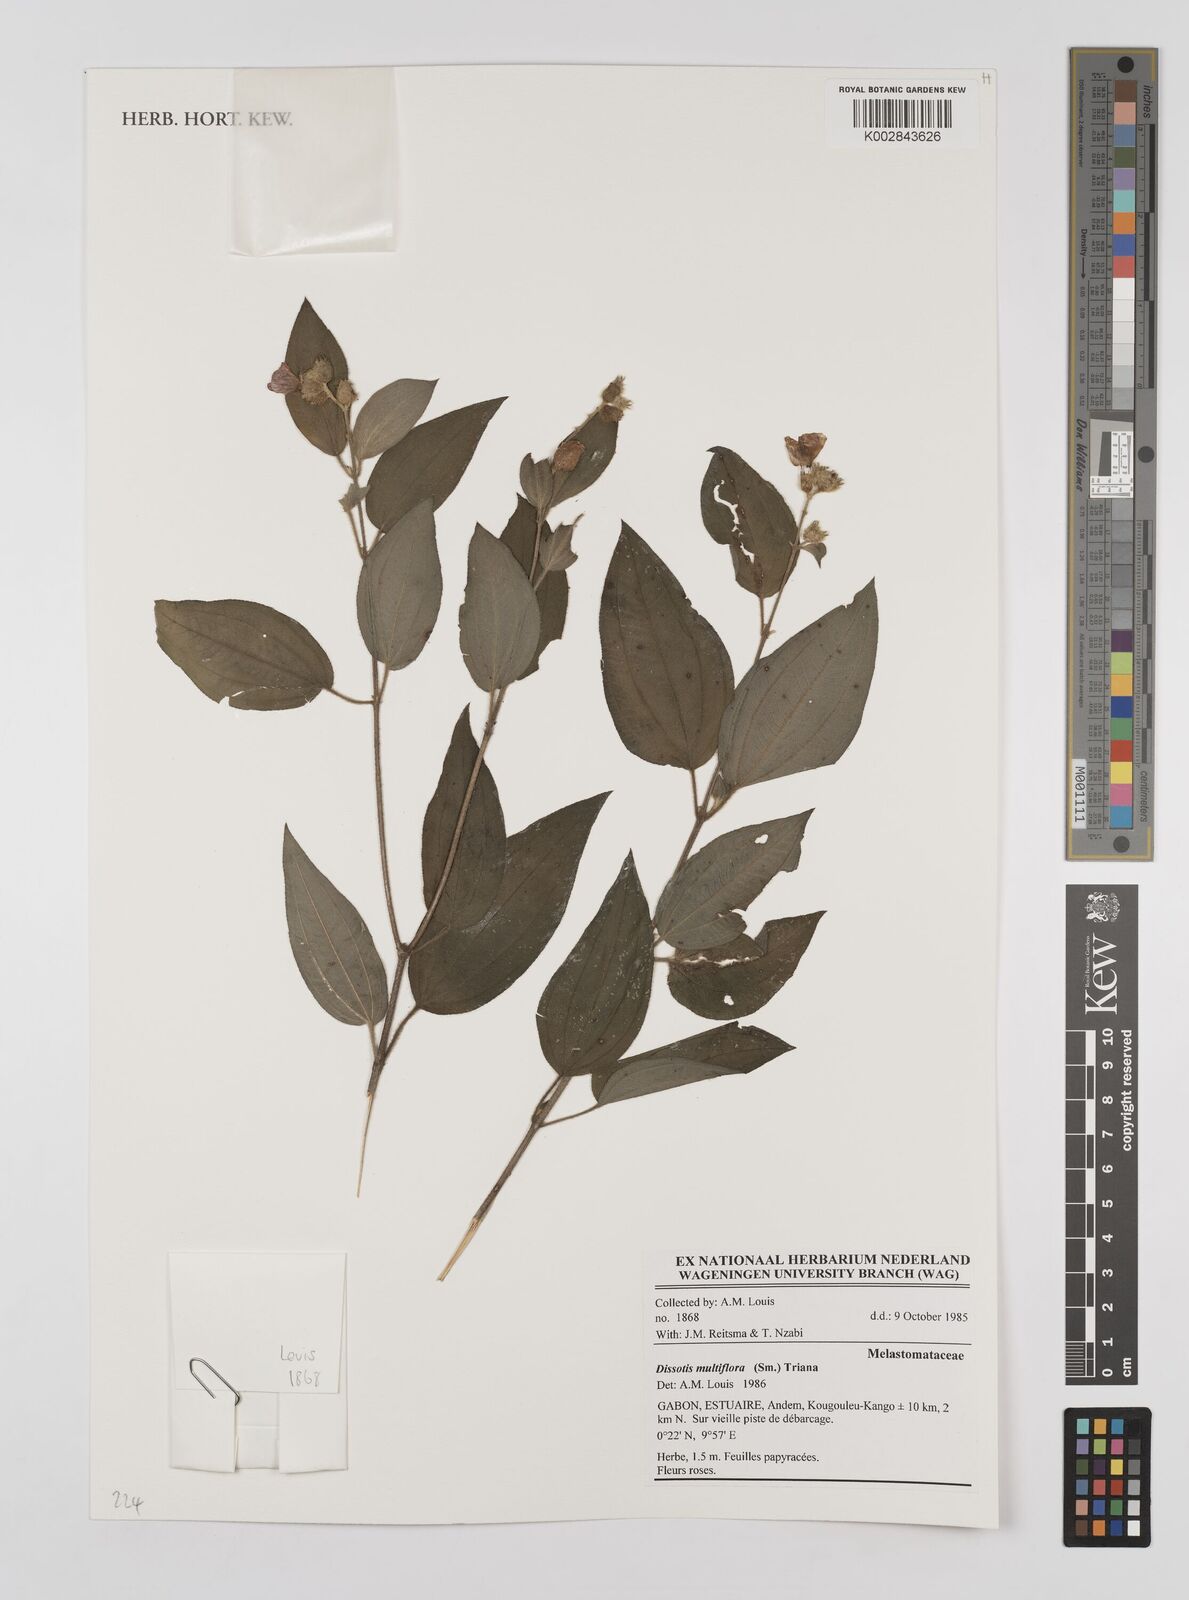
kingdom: Plantae
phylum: Tracheophyta
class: Magnoliopsida
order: Myrtales
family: Melastomataceae
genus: Dupineta
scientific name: Dupineta multiflora
